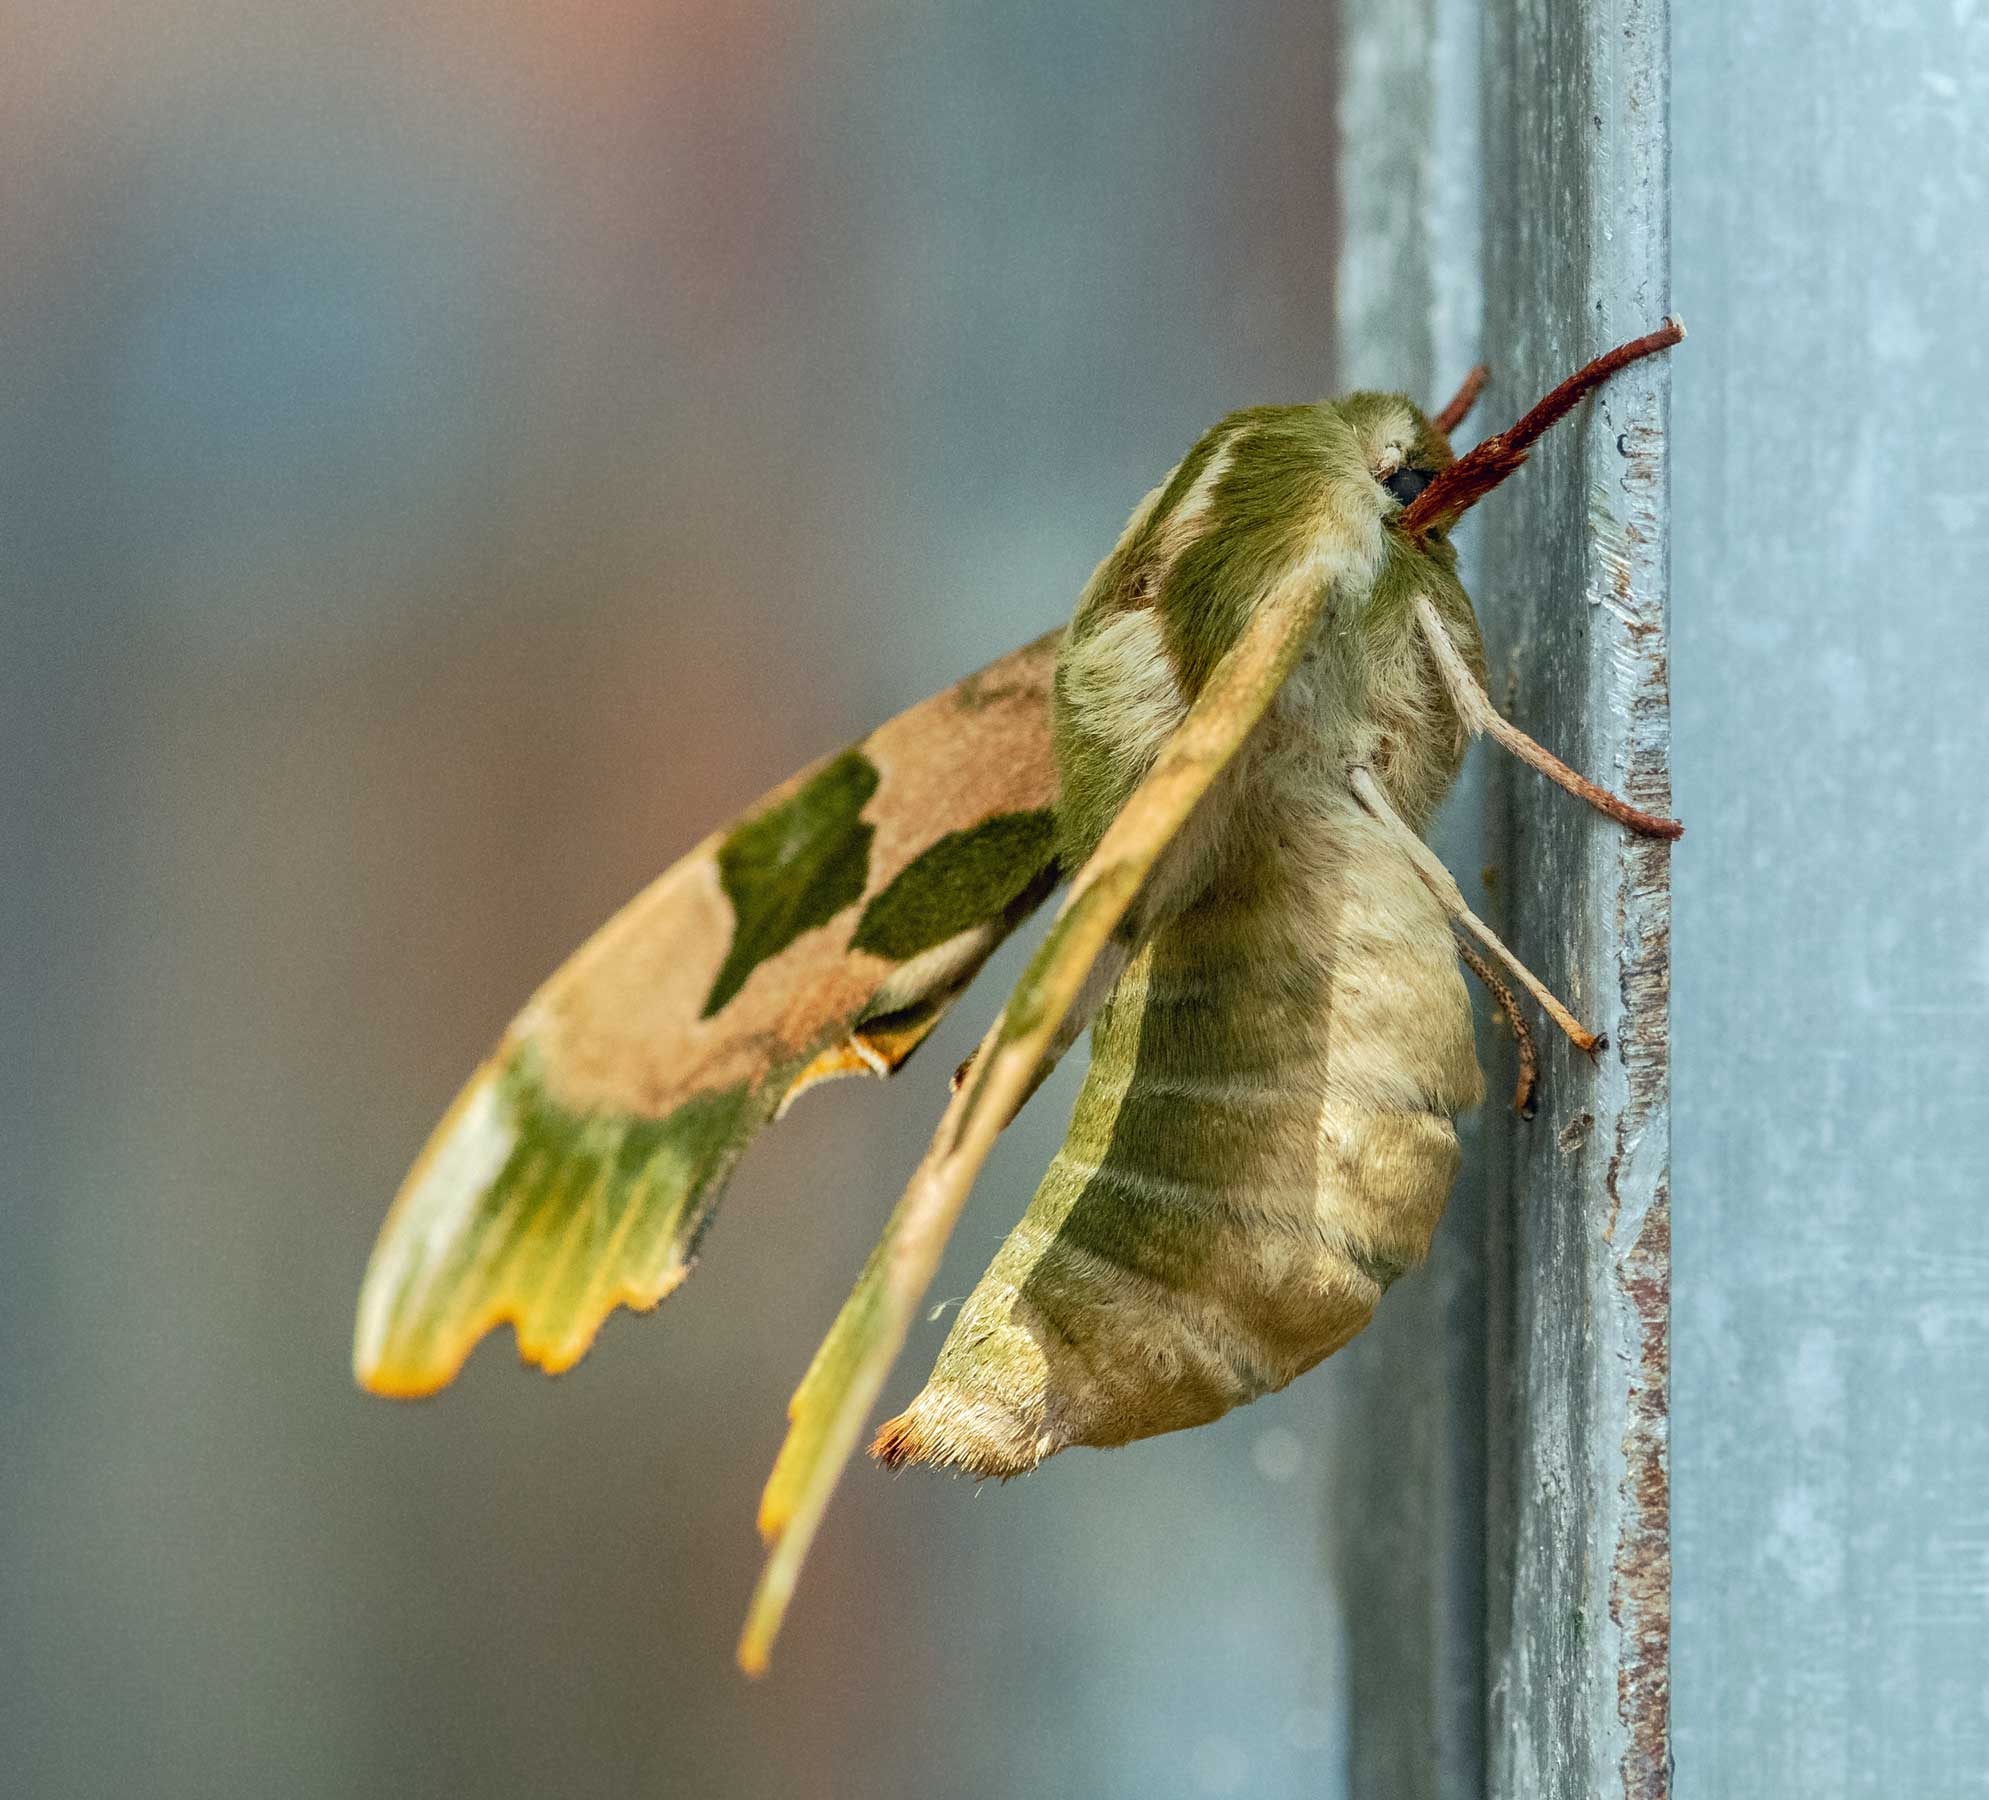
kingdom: Animalia
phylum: Arthropoda
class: Insecta
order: Lepidoptera
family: Sphingidae
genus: Mimas
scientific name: Mimas tiliae
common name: Lindesværmer
